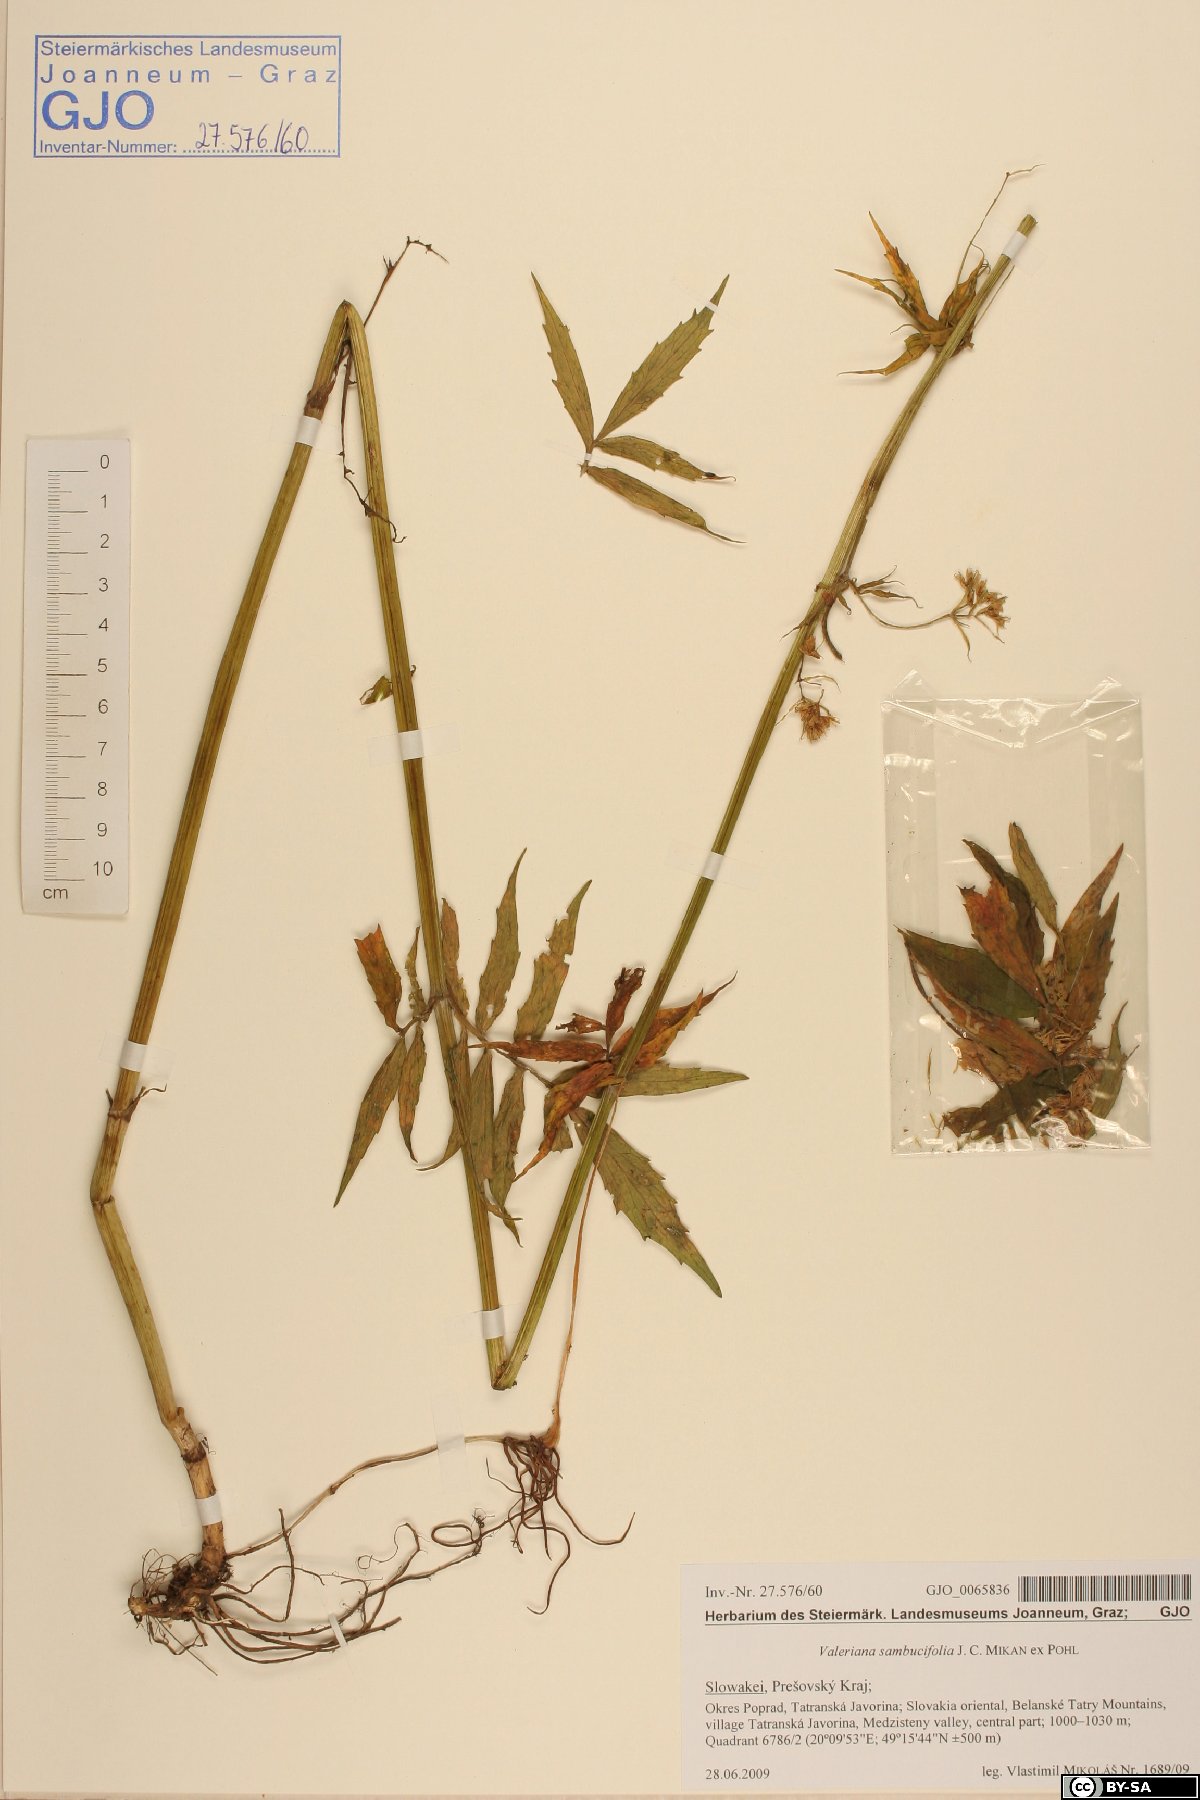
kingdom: Plantae
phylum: Tracheophyta
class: Magnoliopsida
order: Dipsacales
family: Caprifoliaceae
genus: Valeriana
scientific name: Valeriana excelsa
